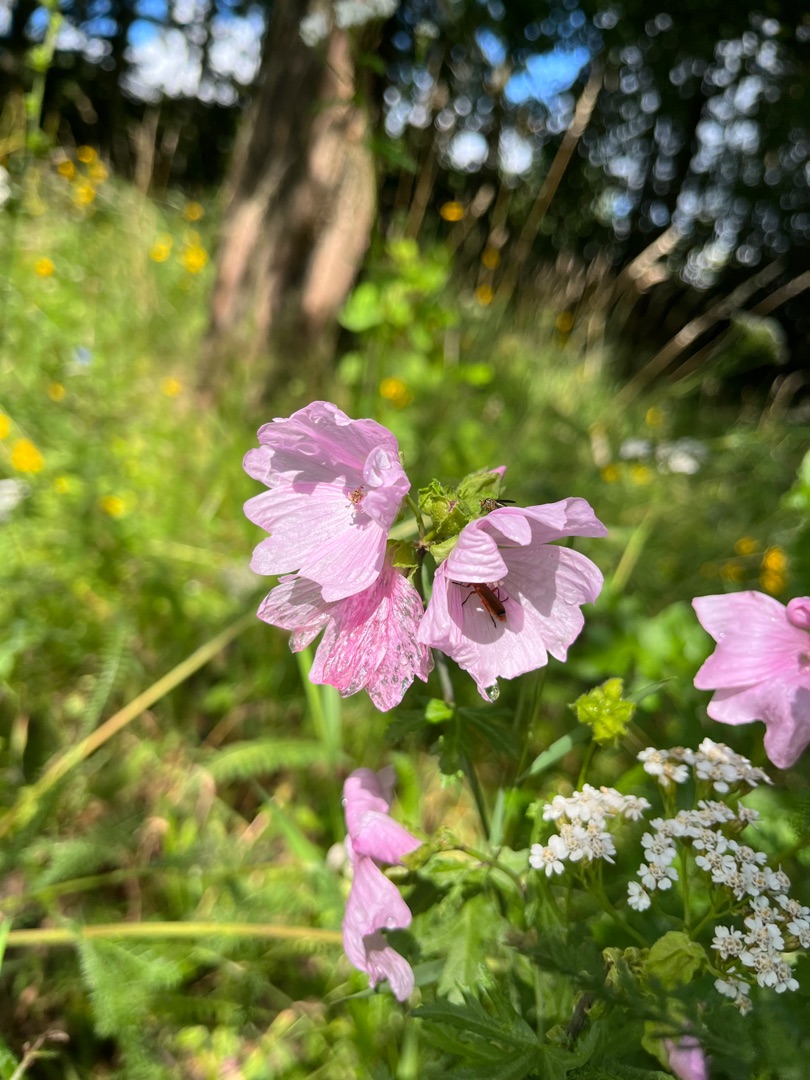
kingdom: Plantae
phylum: Tracheophyta
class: Magnoliopsida
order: Malvales
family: Malvaceae
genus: Malva
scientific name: Malva
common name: Katostslægten
